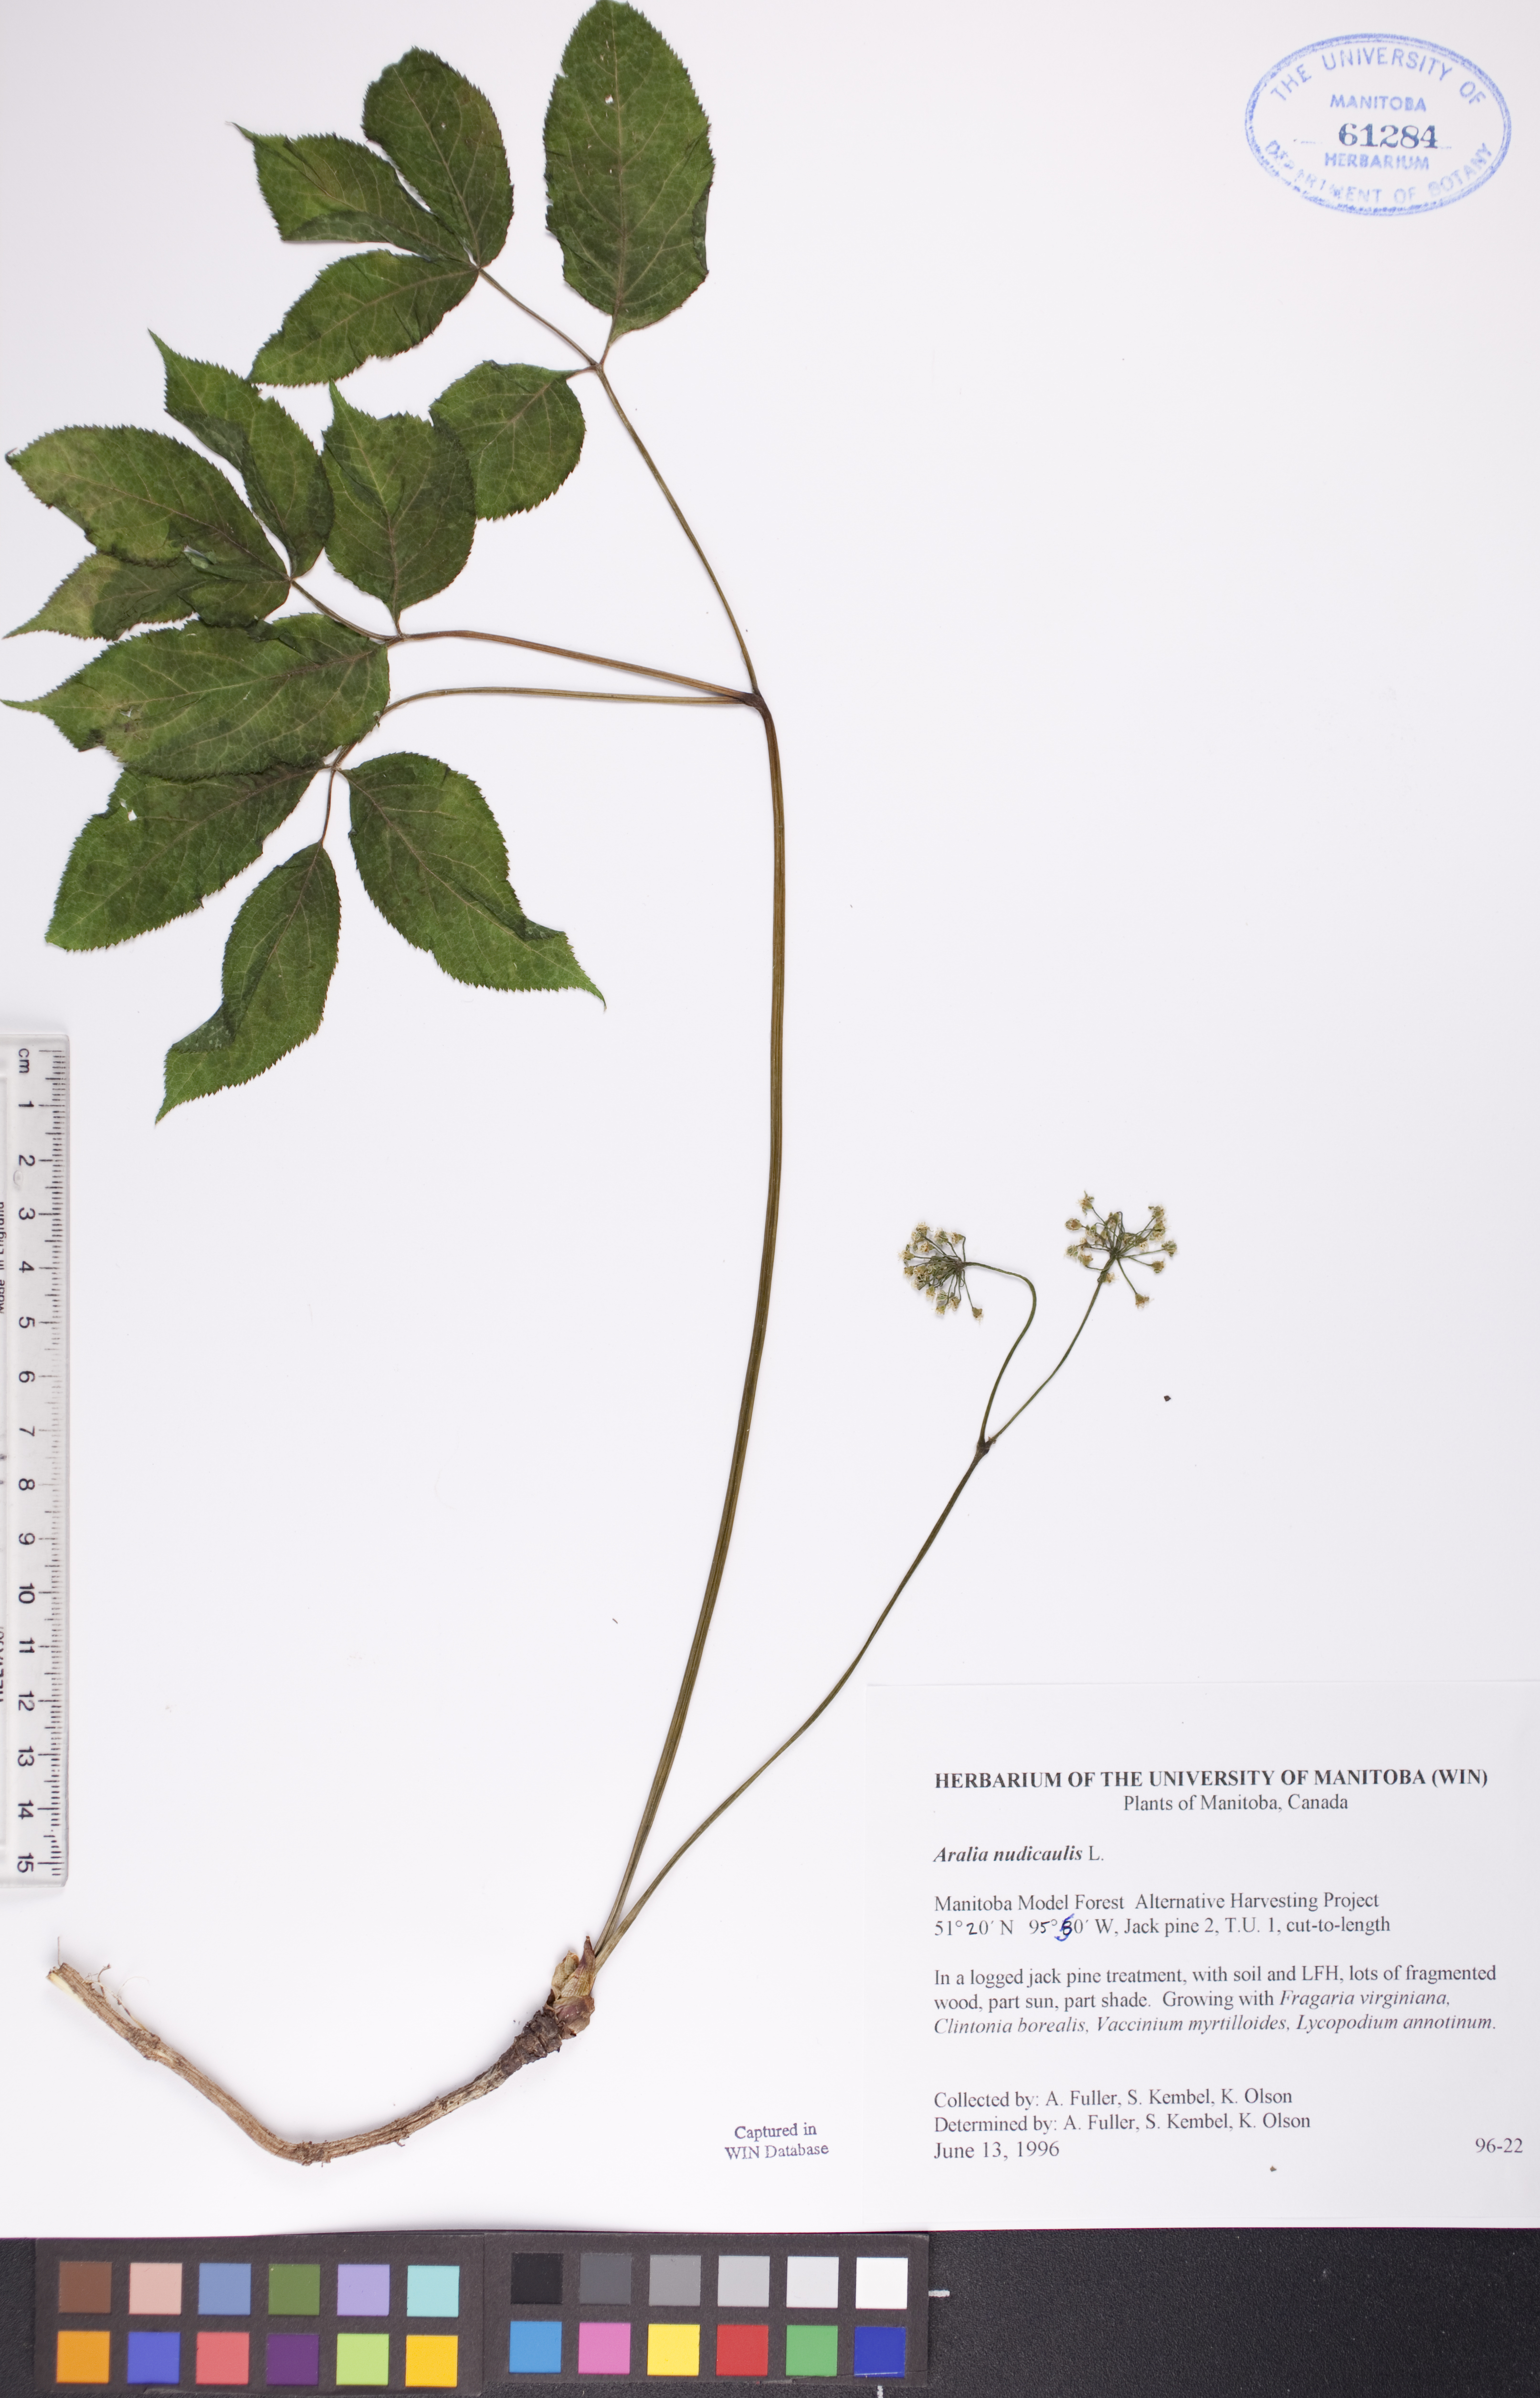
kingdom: Plantae
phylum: Tracheophyta
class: Magnoliopsida
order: Apiales
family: Araliaceae
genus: Aralia
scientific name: Aralia nudicaulis
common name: Wild sarsaparilla
